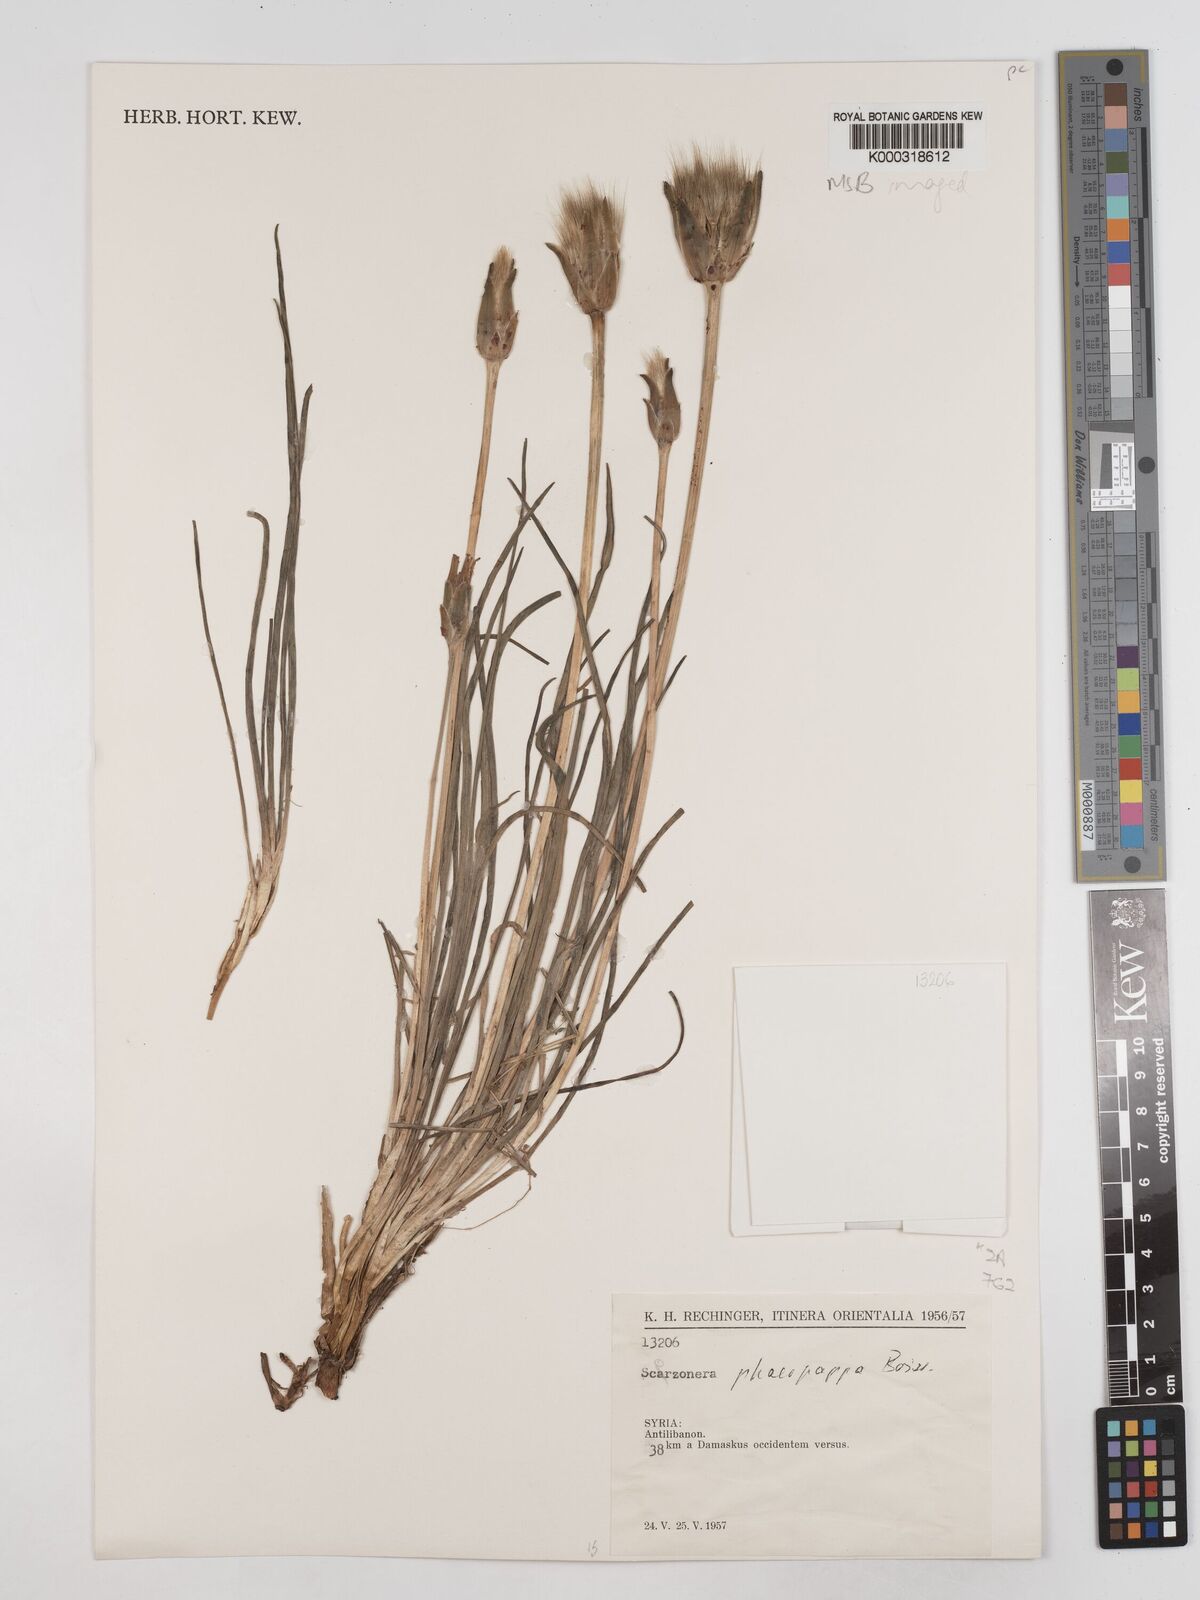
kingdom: Plantae
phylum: Tracheophyta
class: Magnoliopsida
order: Asterales
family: Asteraceae
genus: Pseudopodospermum
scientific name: Pseudopodospermum phaeopappum
